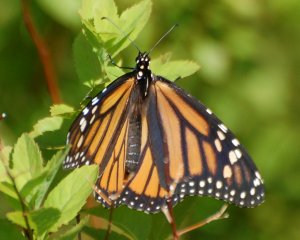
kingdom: Animalia
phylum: Arthropoda
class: Insecta
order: Lepidoptera
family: Nymphalidae
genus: Danaus
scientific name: Danaus plexippus
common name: Monarch
